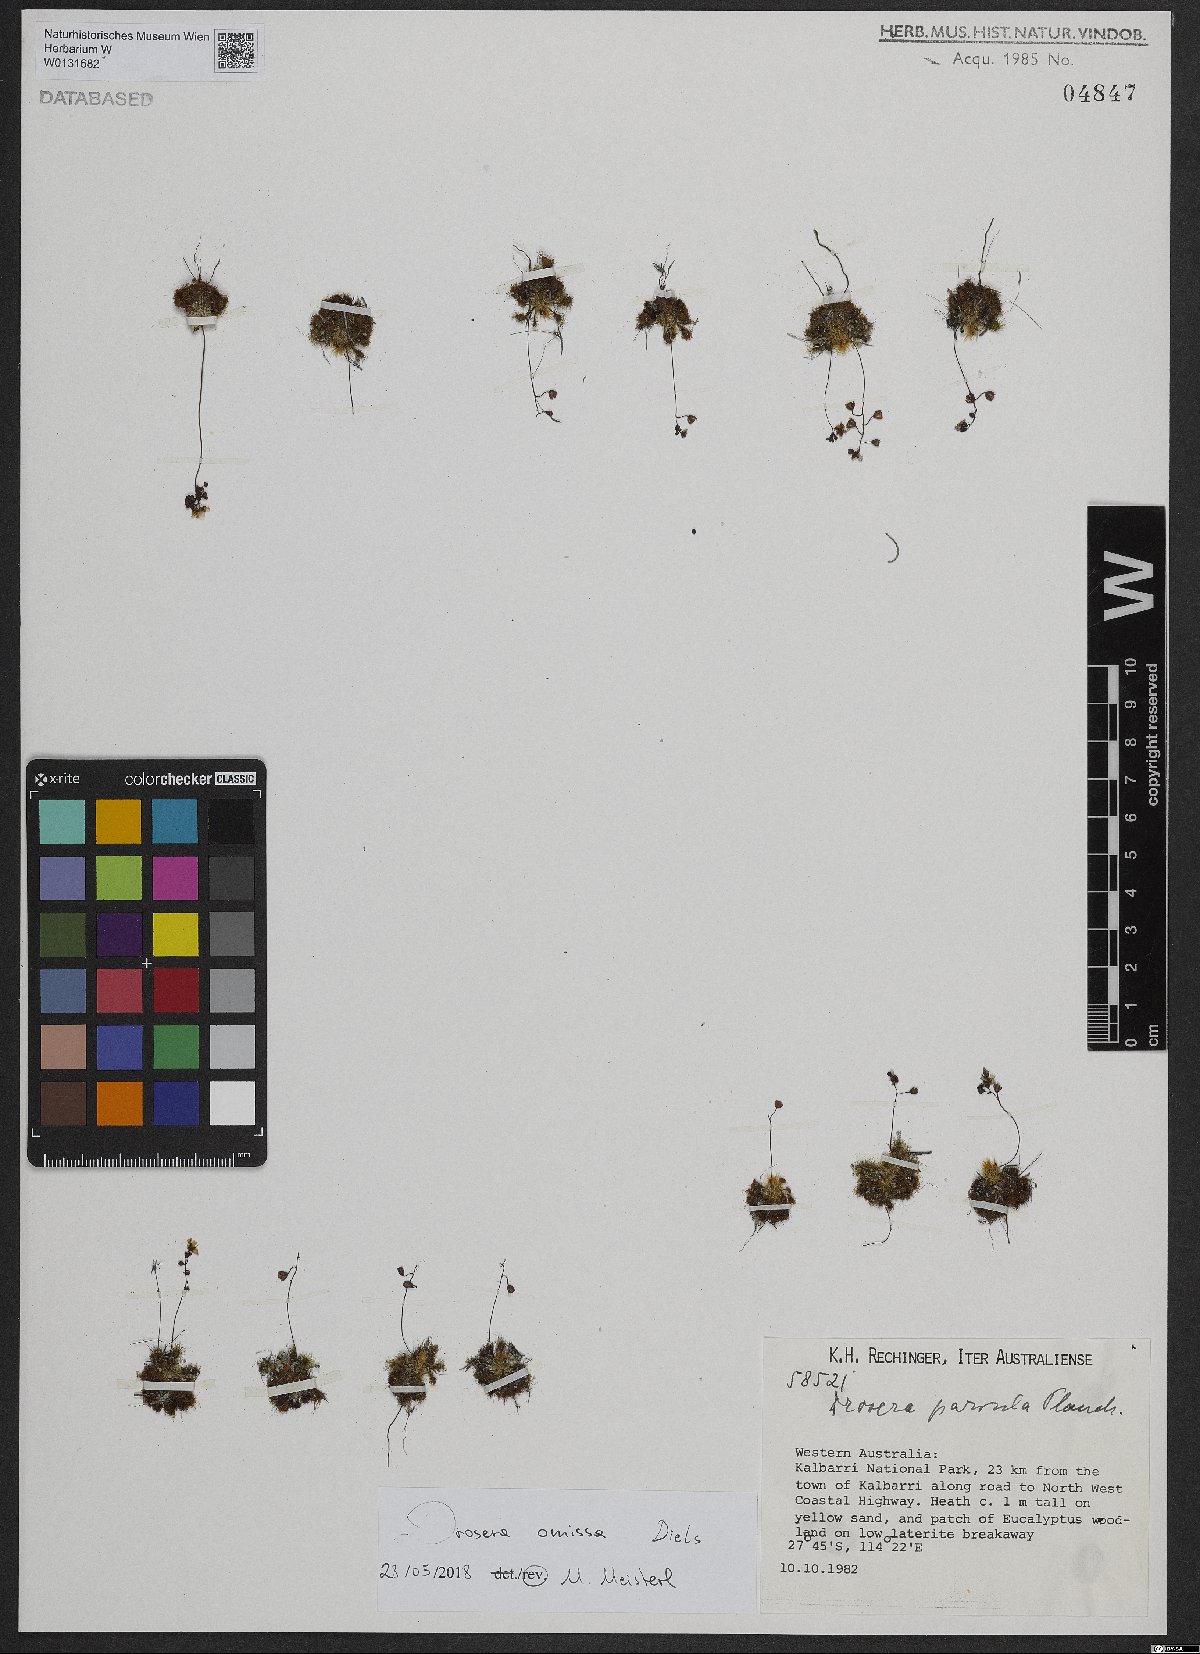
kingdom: Plantae
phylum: Tracheophyta
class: Magnoliopsida
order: Caryophyllales
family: Droseraceae
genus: Drosera
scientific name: Drosera nitidula
